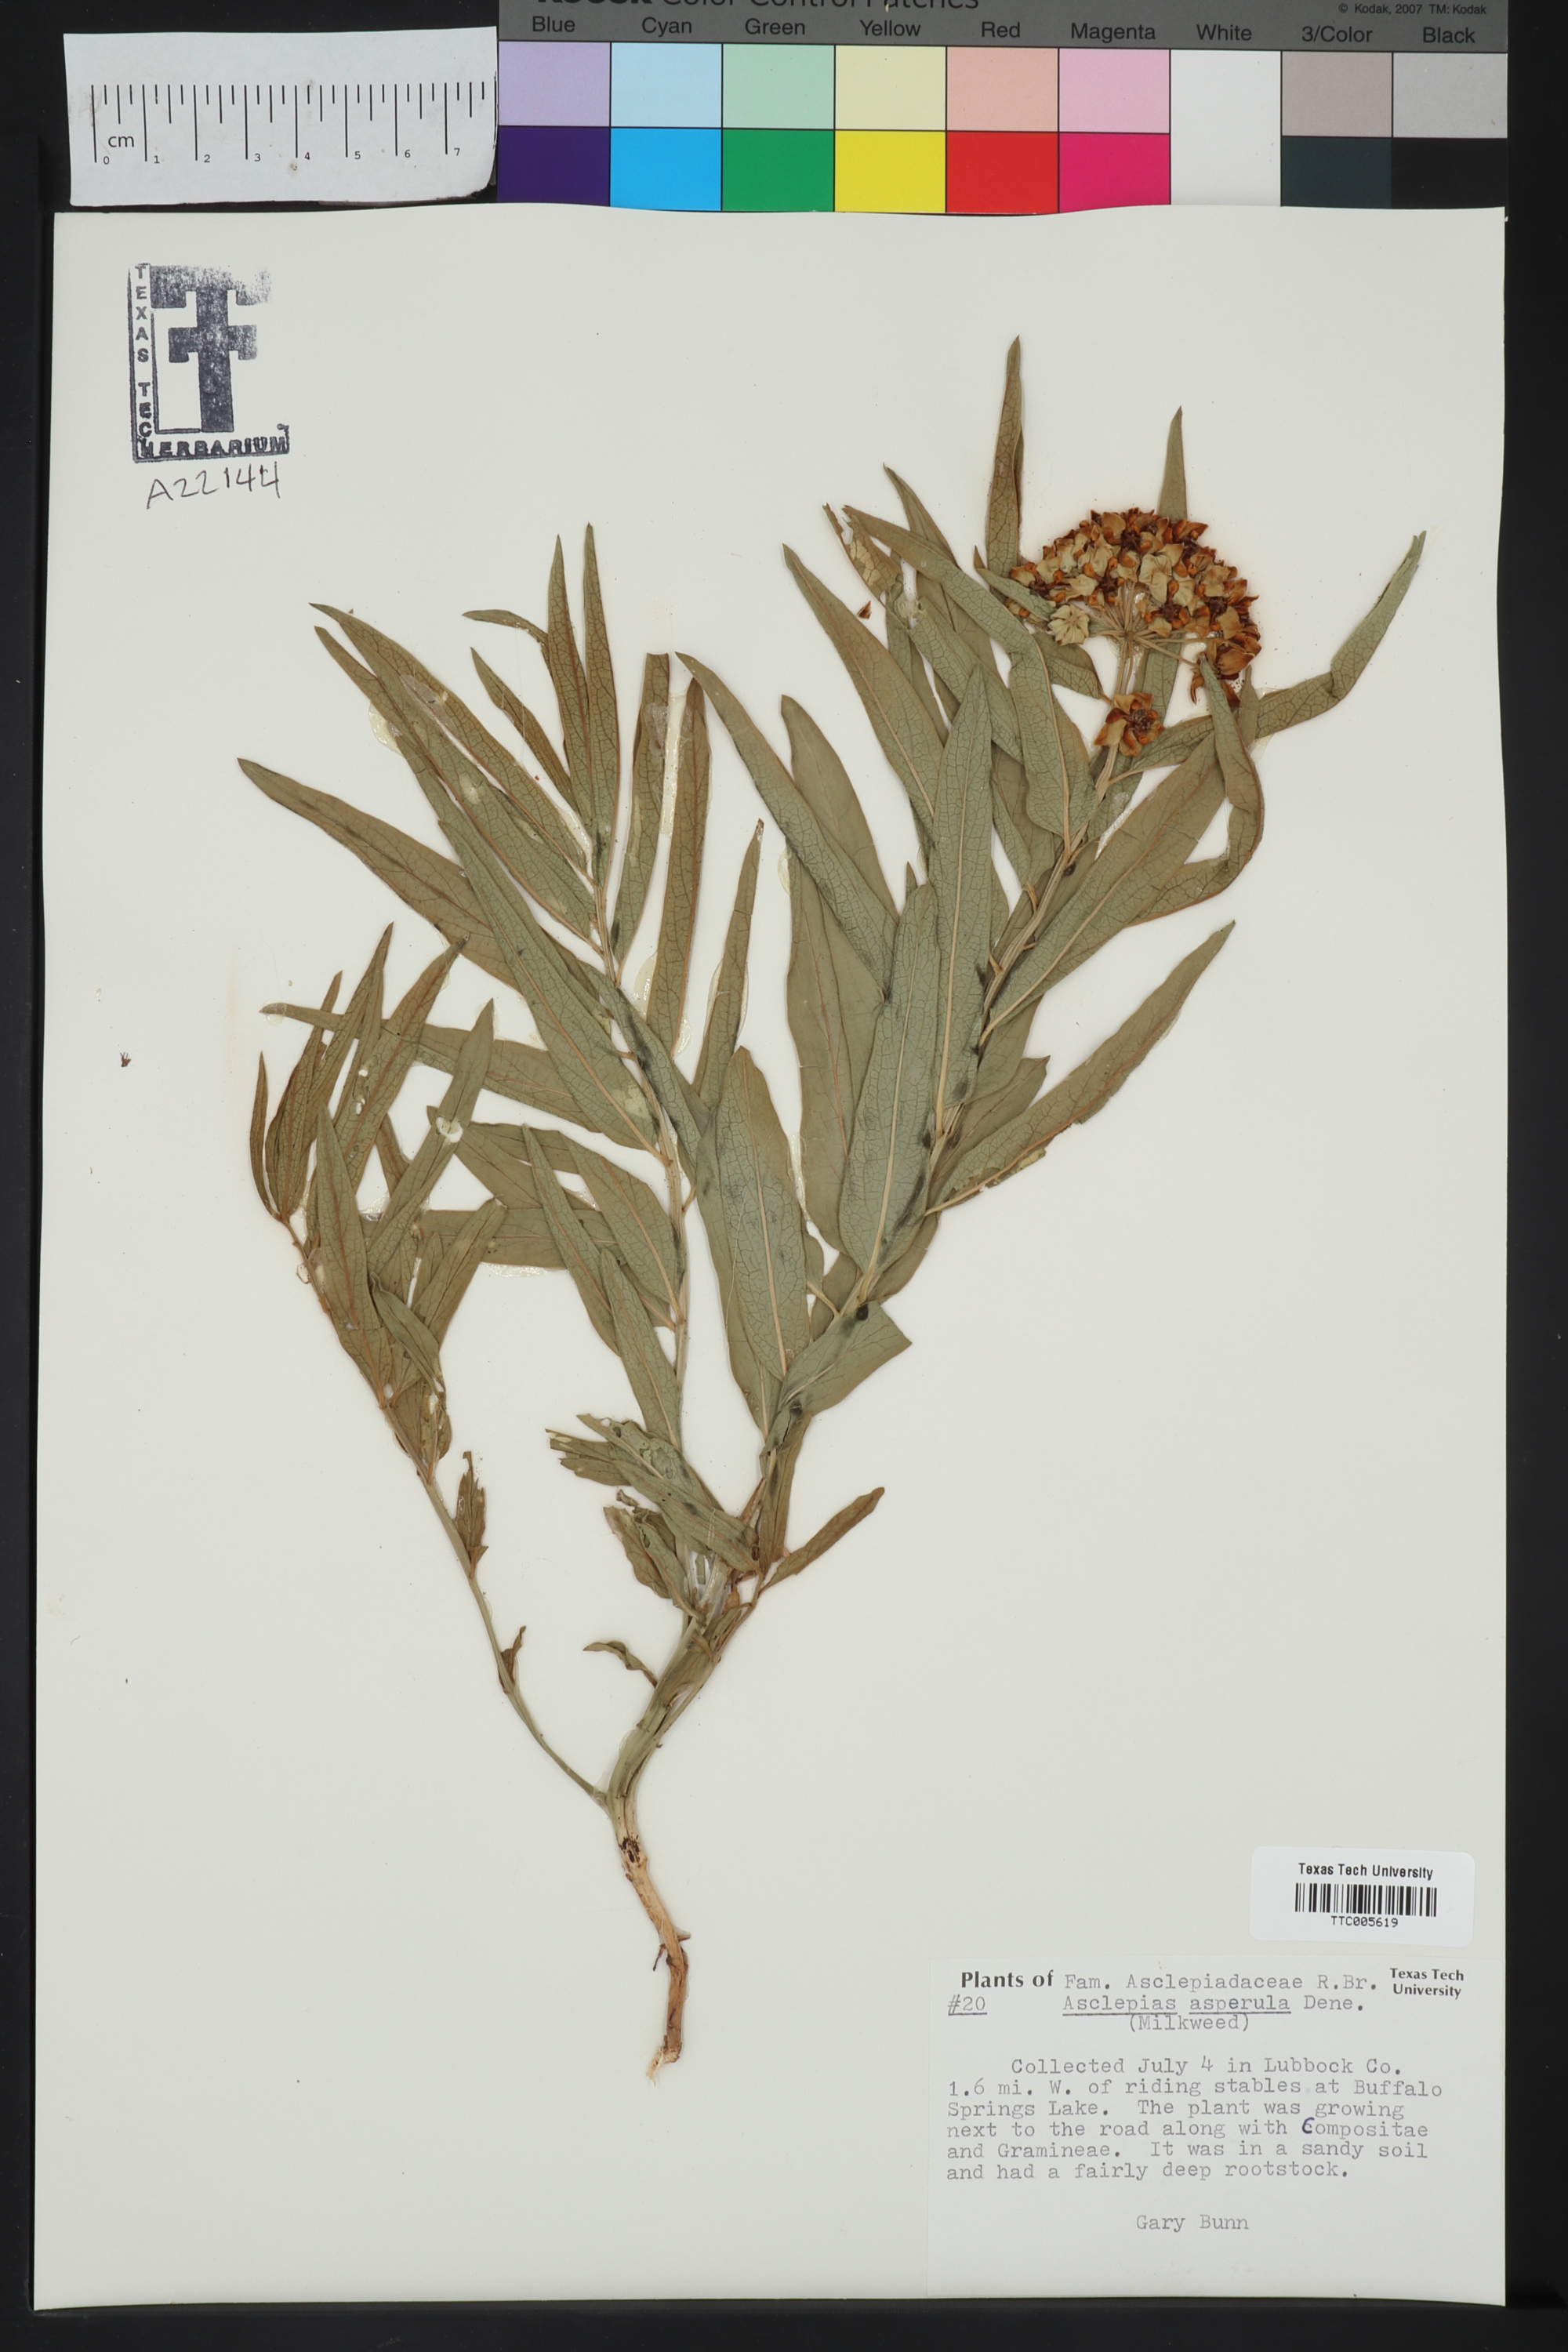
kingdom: Plantae
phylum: Tracheophyta
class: Magnoliopsida
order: Gentianales
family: Apocynaceae
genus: Asclepias
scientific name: Asclepias asperula
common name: Antelope horns
